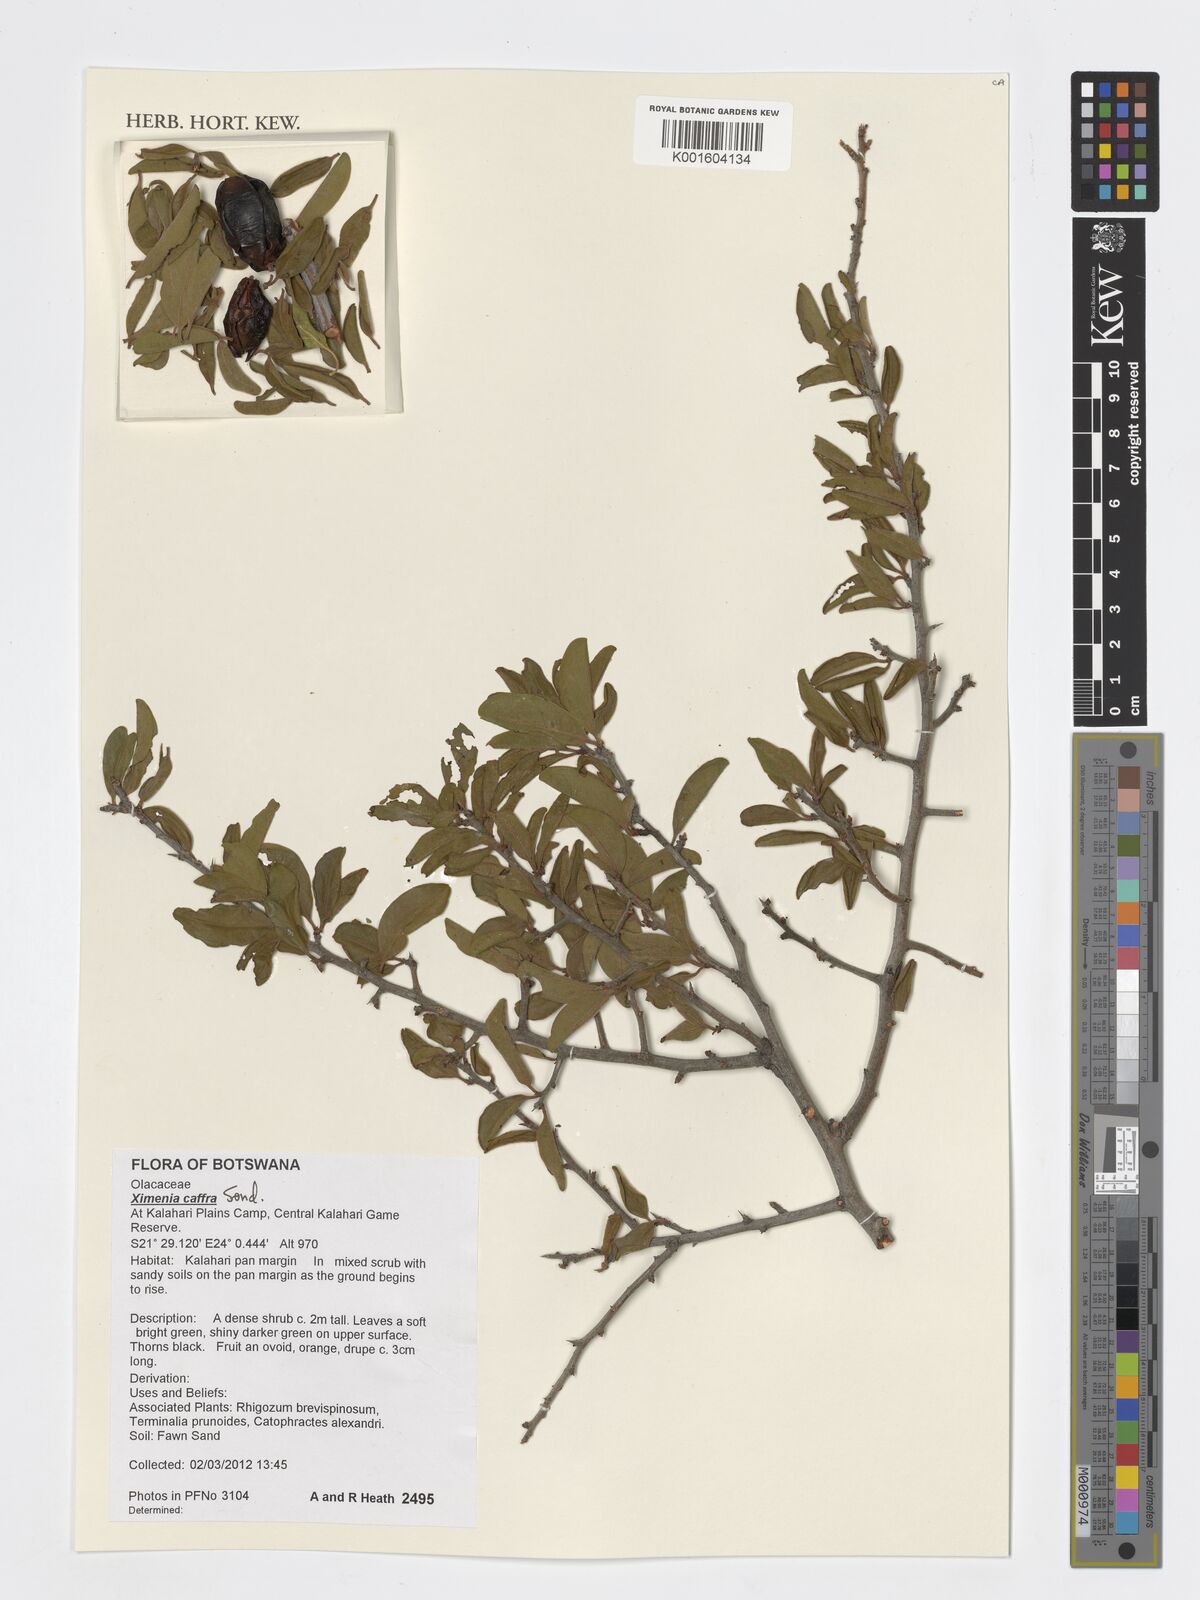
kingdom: Plantae
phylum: Tracheophyta
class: Magnoliopsida
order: Santalales
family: Ximeniaceae
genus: Ximenia
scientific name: Ximenia caffra
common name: Large sourplum
